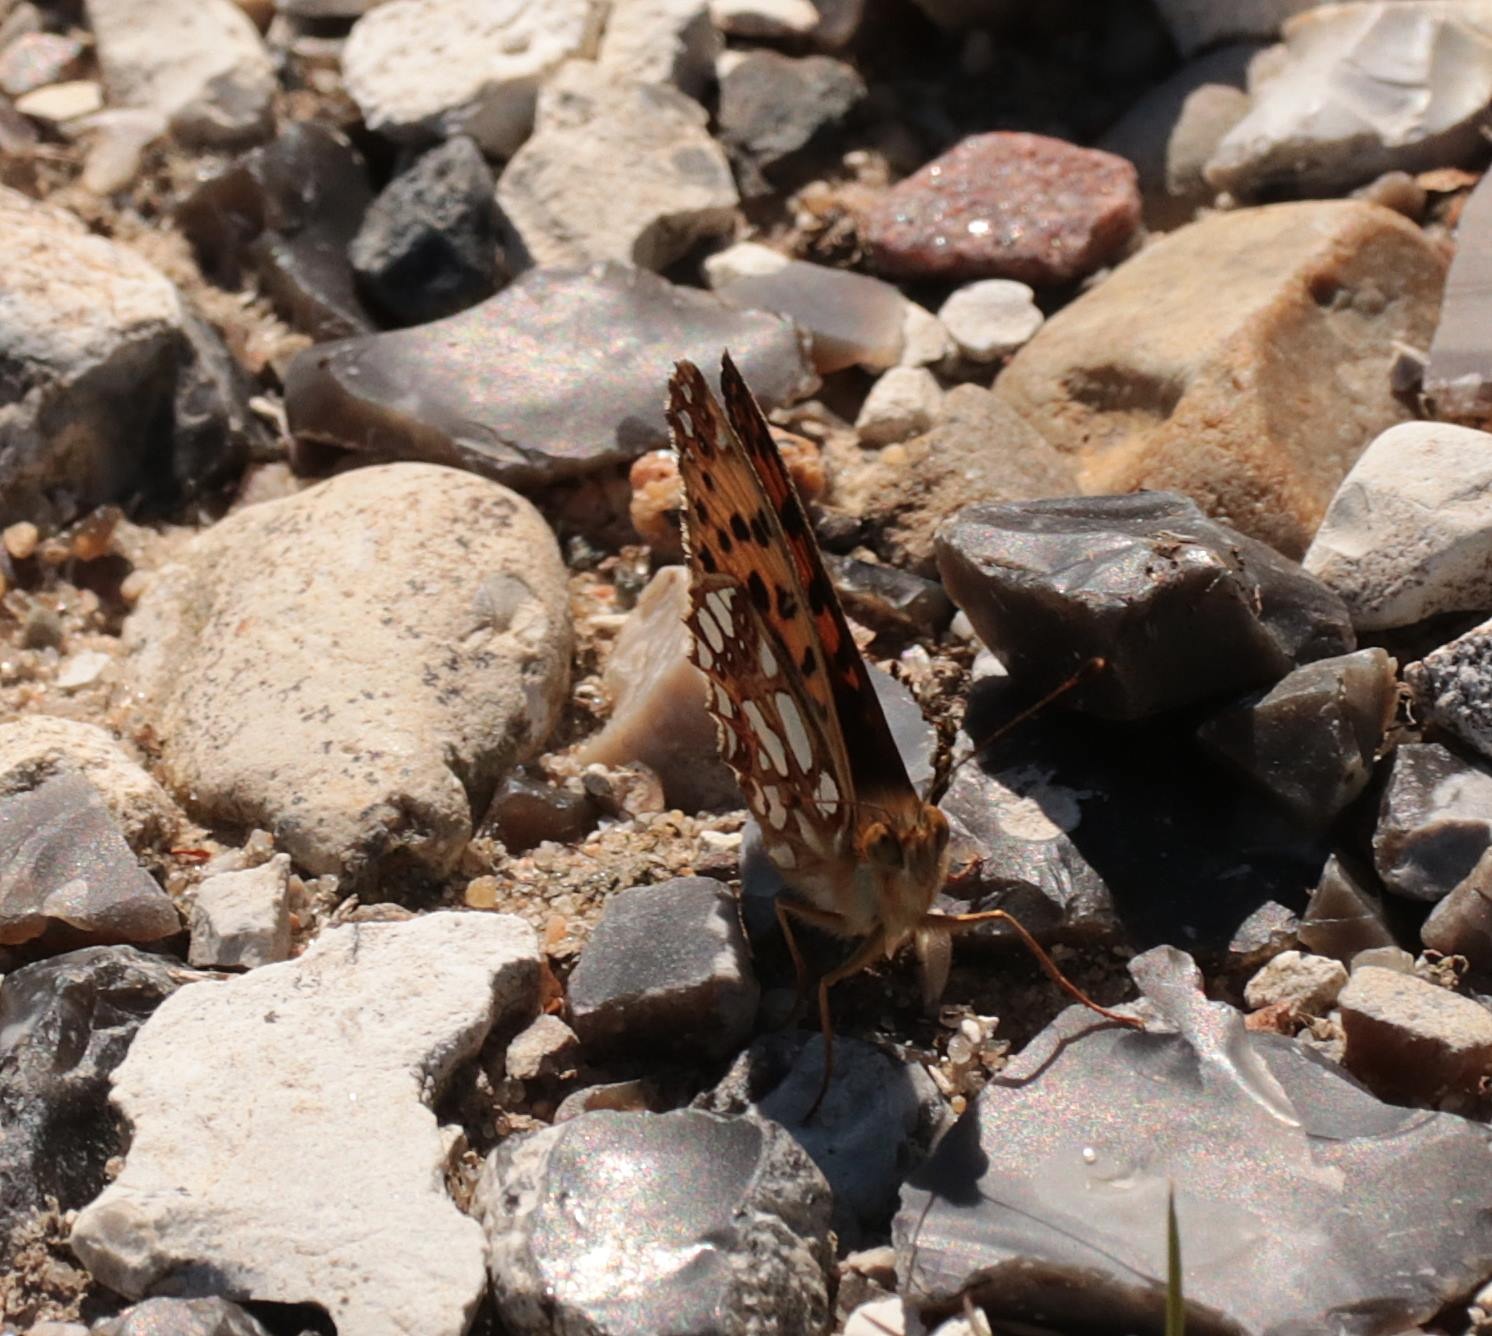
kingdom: Animalia
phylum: Arthropoda
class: Insecta
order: Lepidoptera
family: Nymphalidae
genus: Issoria
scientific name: Issoria lathonia
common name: Storplettet perlemorsommerfugl
